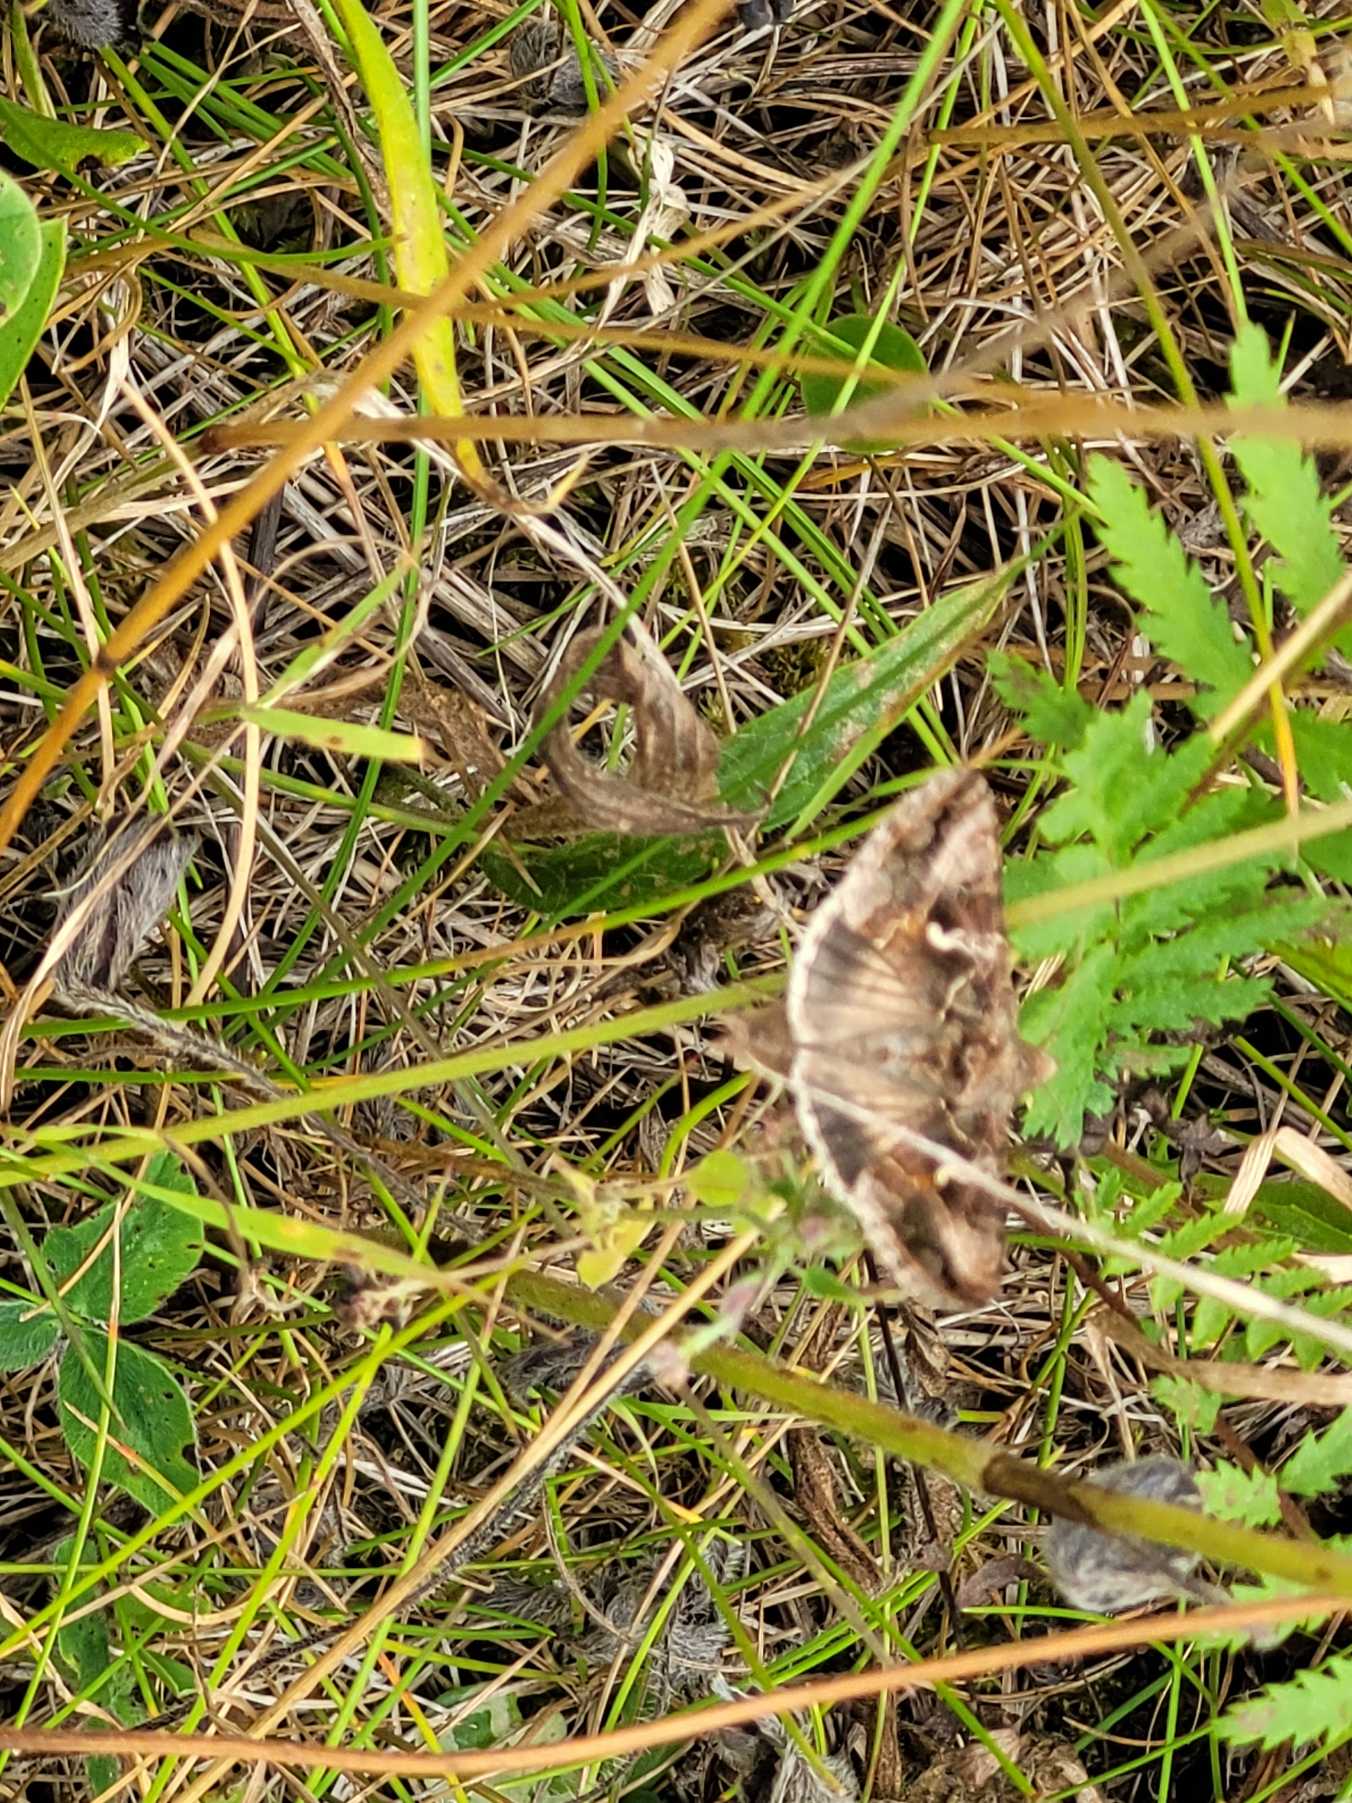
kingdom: Animalia
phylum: Arthropoda
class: Insecta
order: Lepidoptera
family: Noctuidae
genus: Autographa
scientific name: Autographa gamma
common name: Gammaugle
